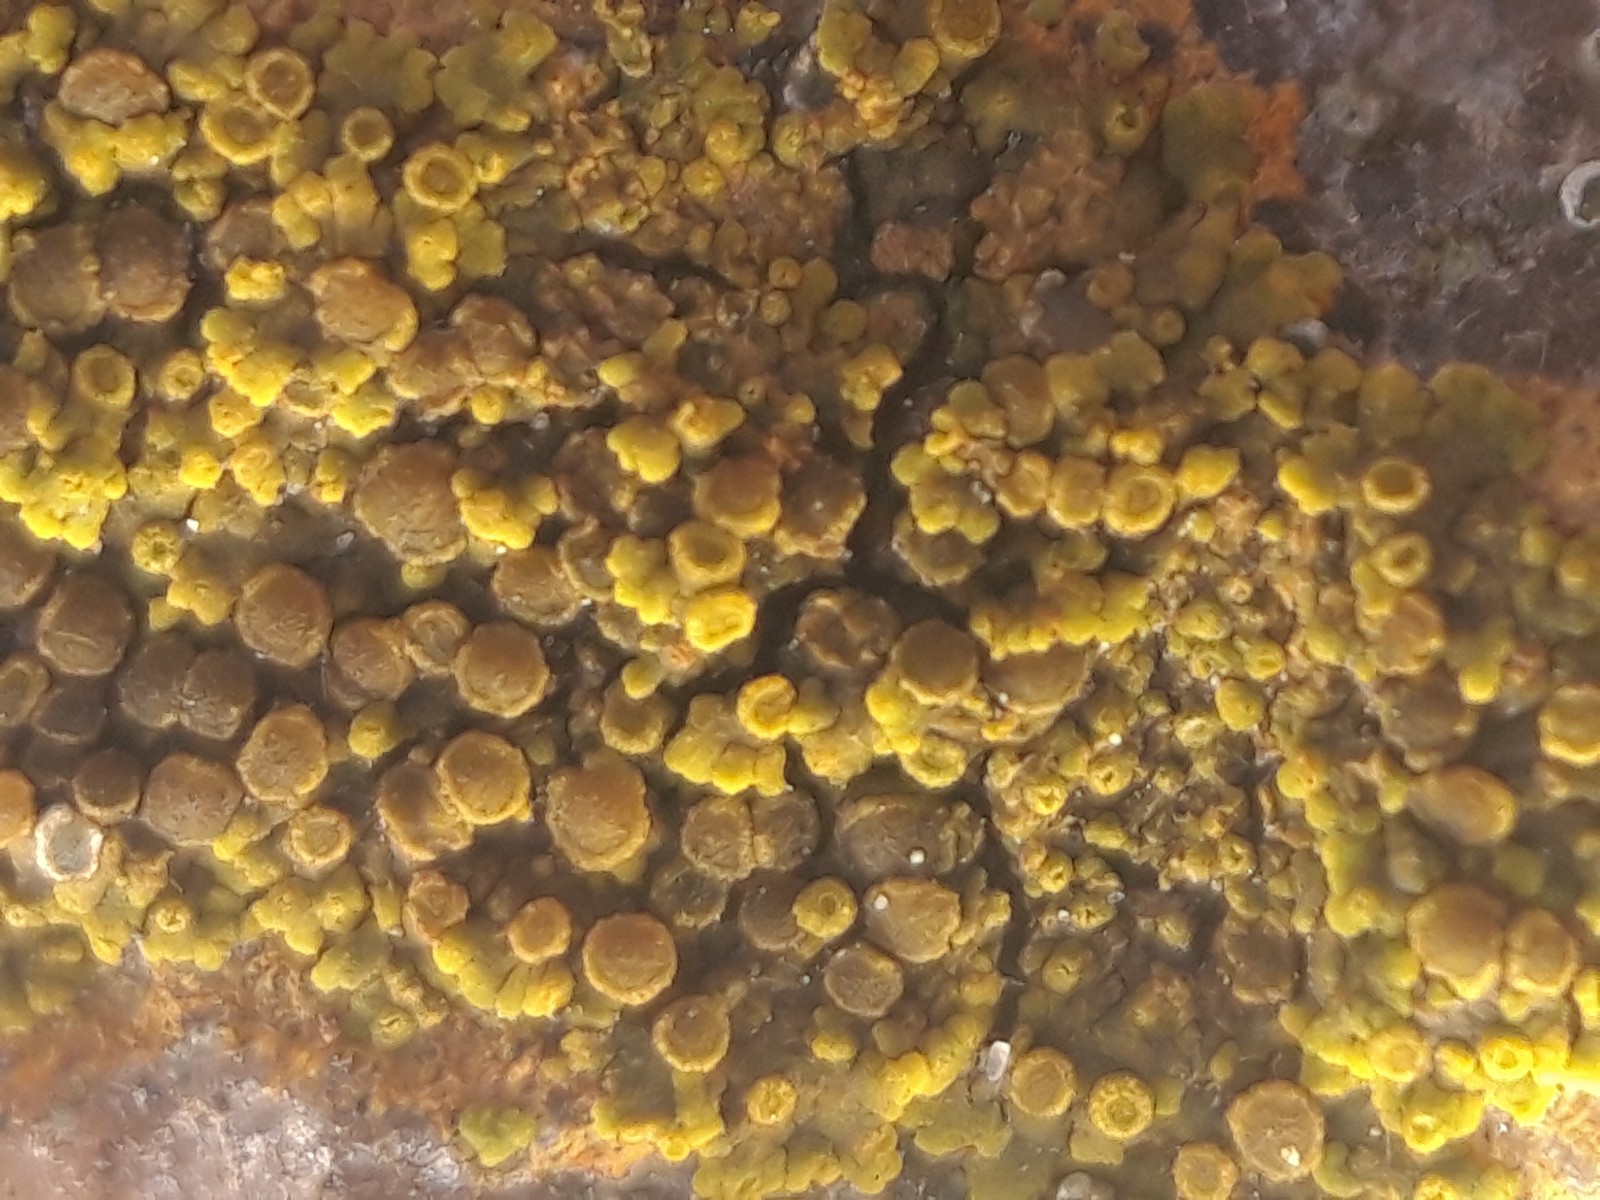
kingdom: Fungi
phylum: Ascomycota
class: Lecanoromycetes
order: Teloschistales
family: Teloschistaceae
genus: Calogaya
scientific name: Calogaya arnoldii
